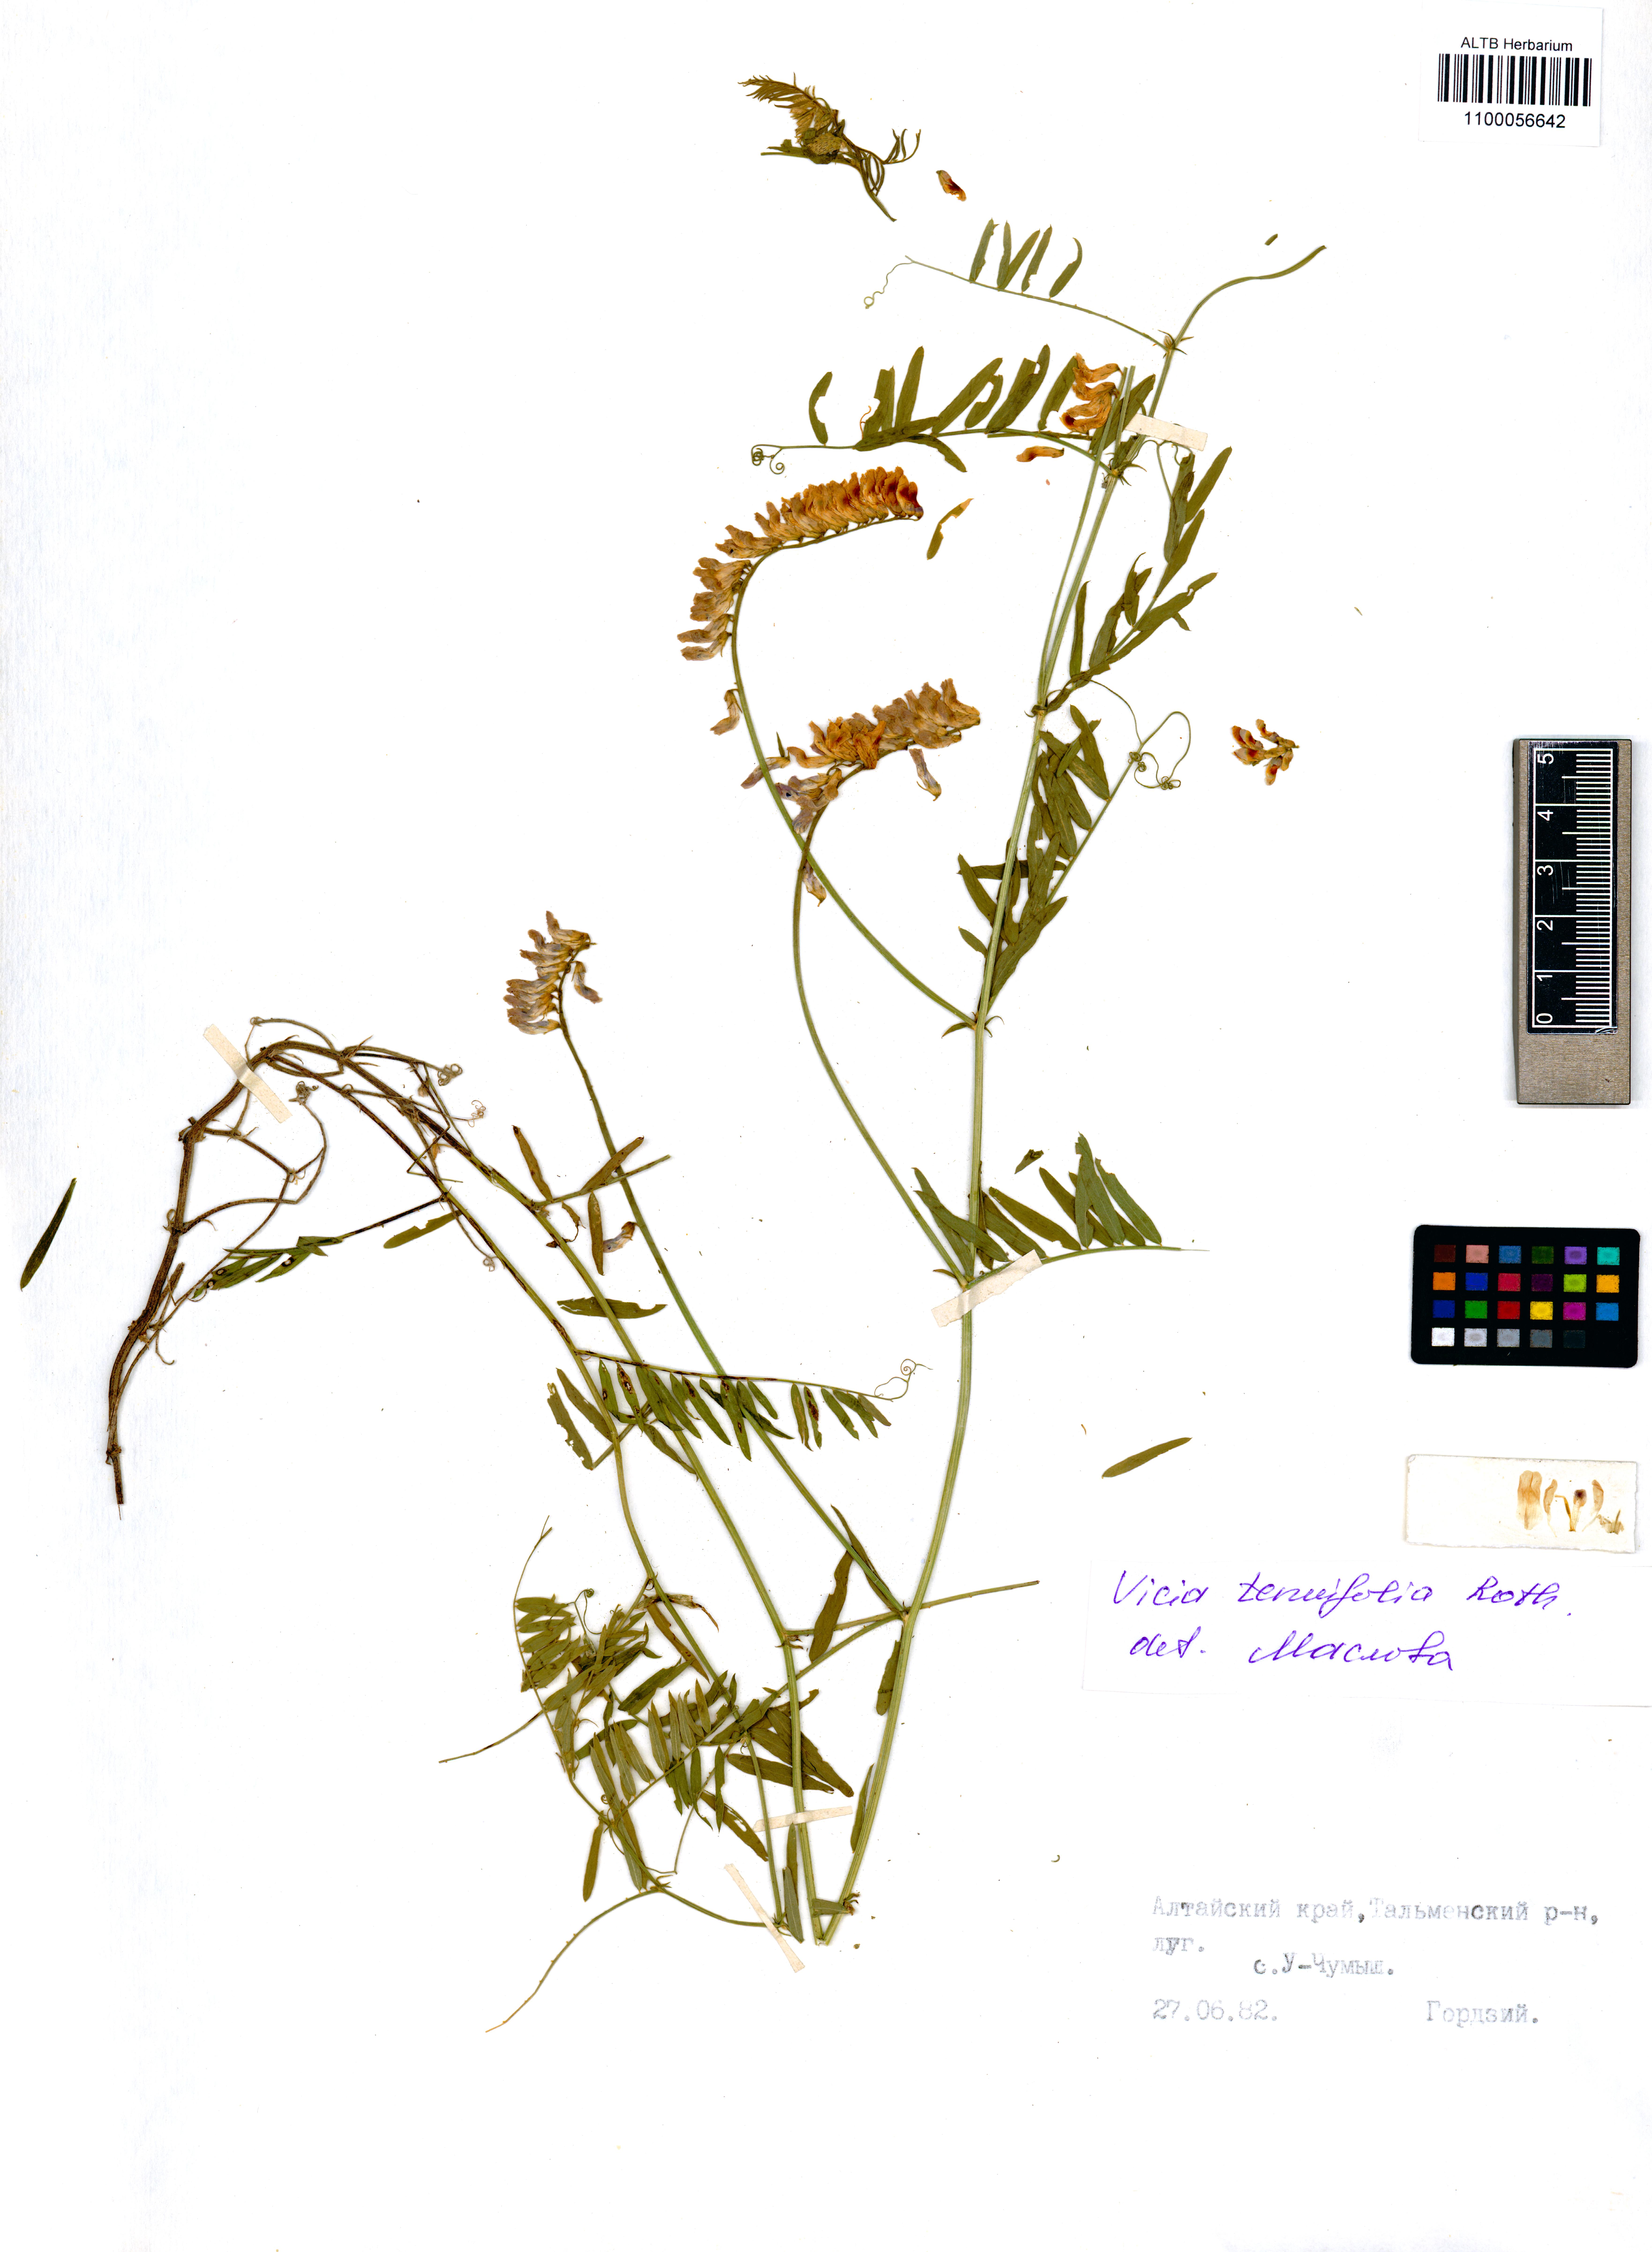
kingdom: Plantae
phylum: Tracheophyta
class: Magnoliopsida
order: Fabales
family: Fabaceae
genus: Vicia
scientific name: Vicia tenuifolia
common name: Fine-leaved vetch
